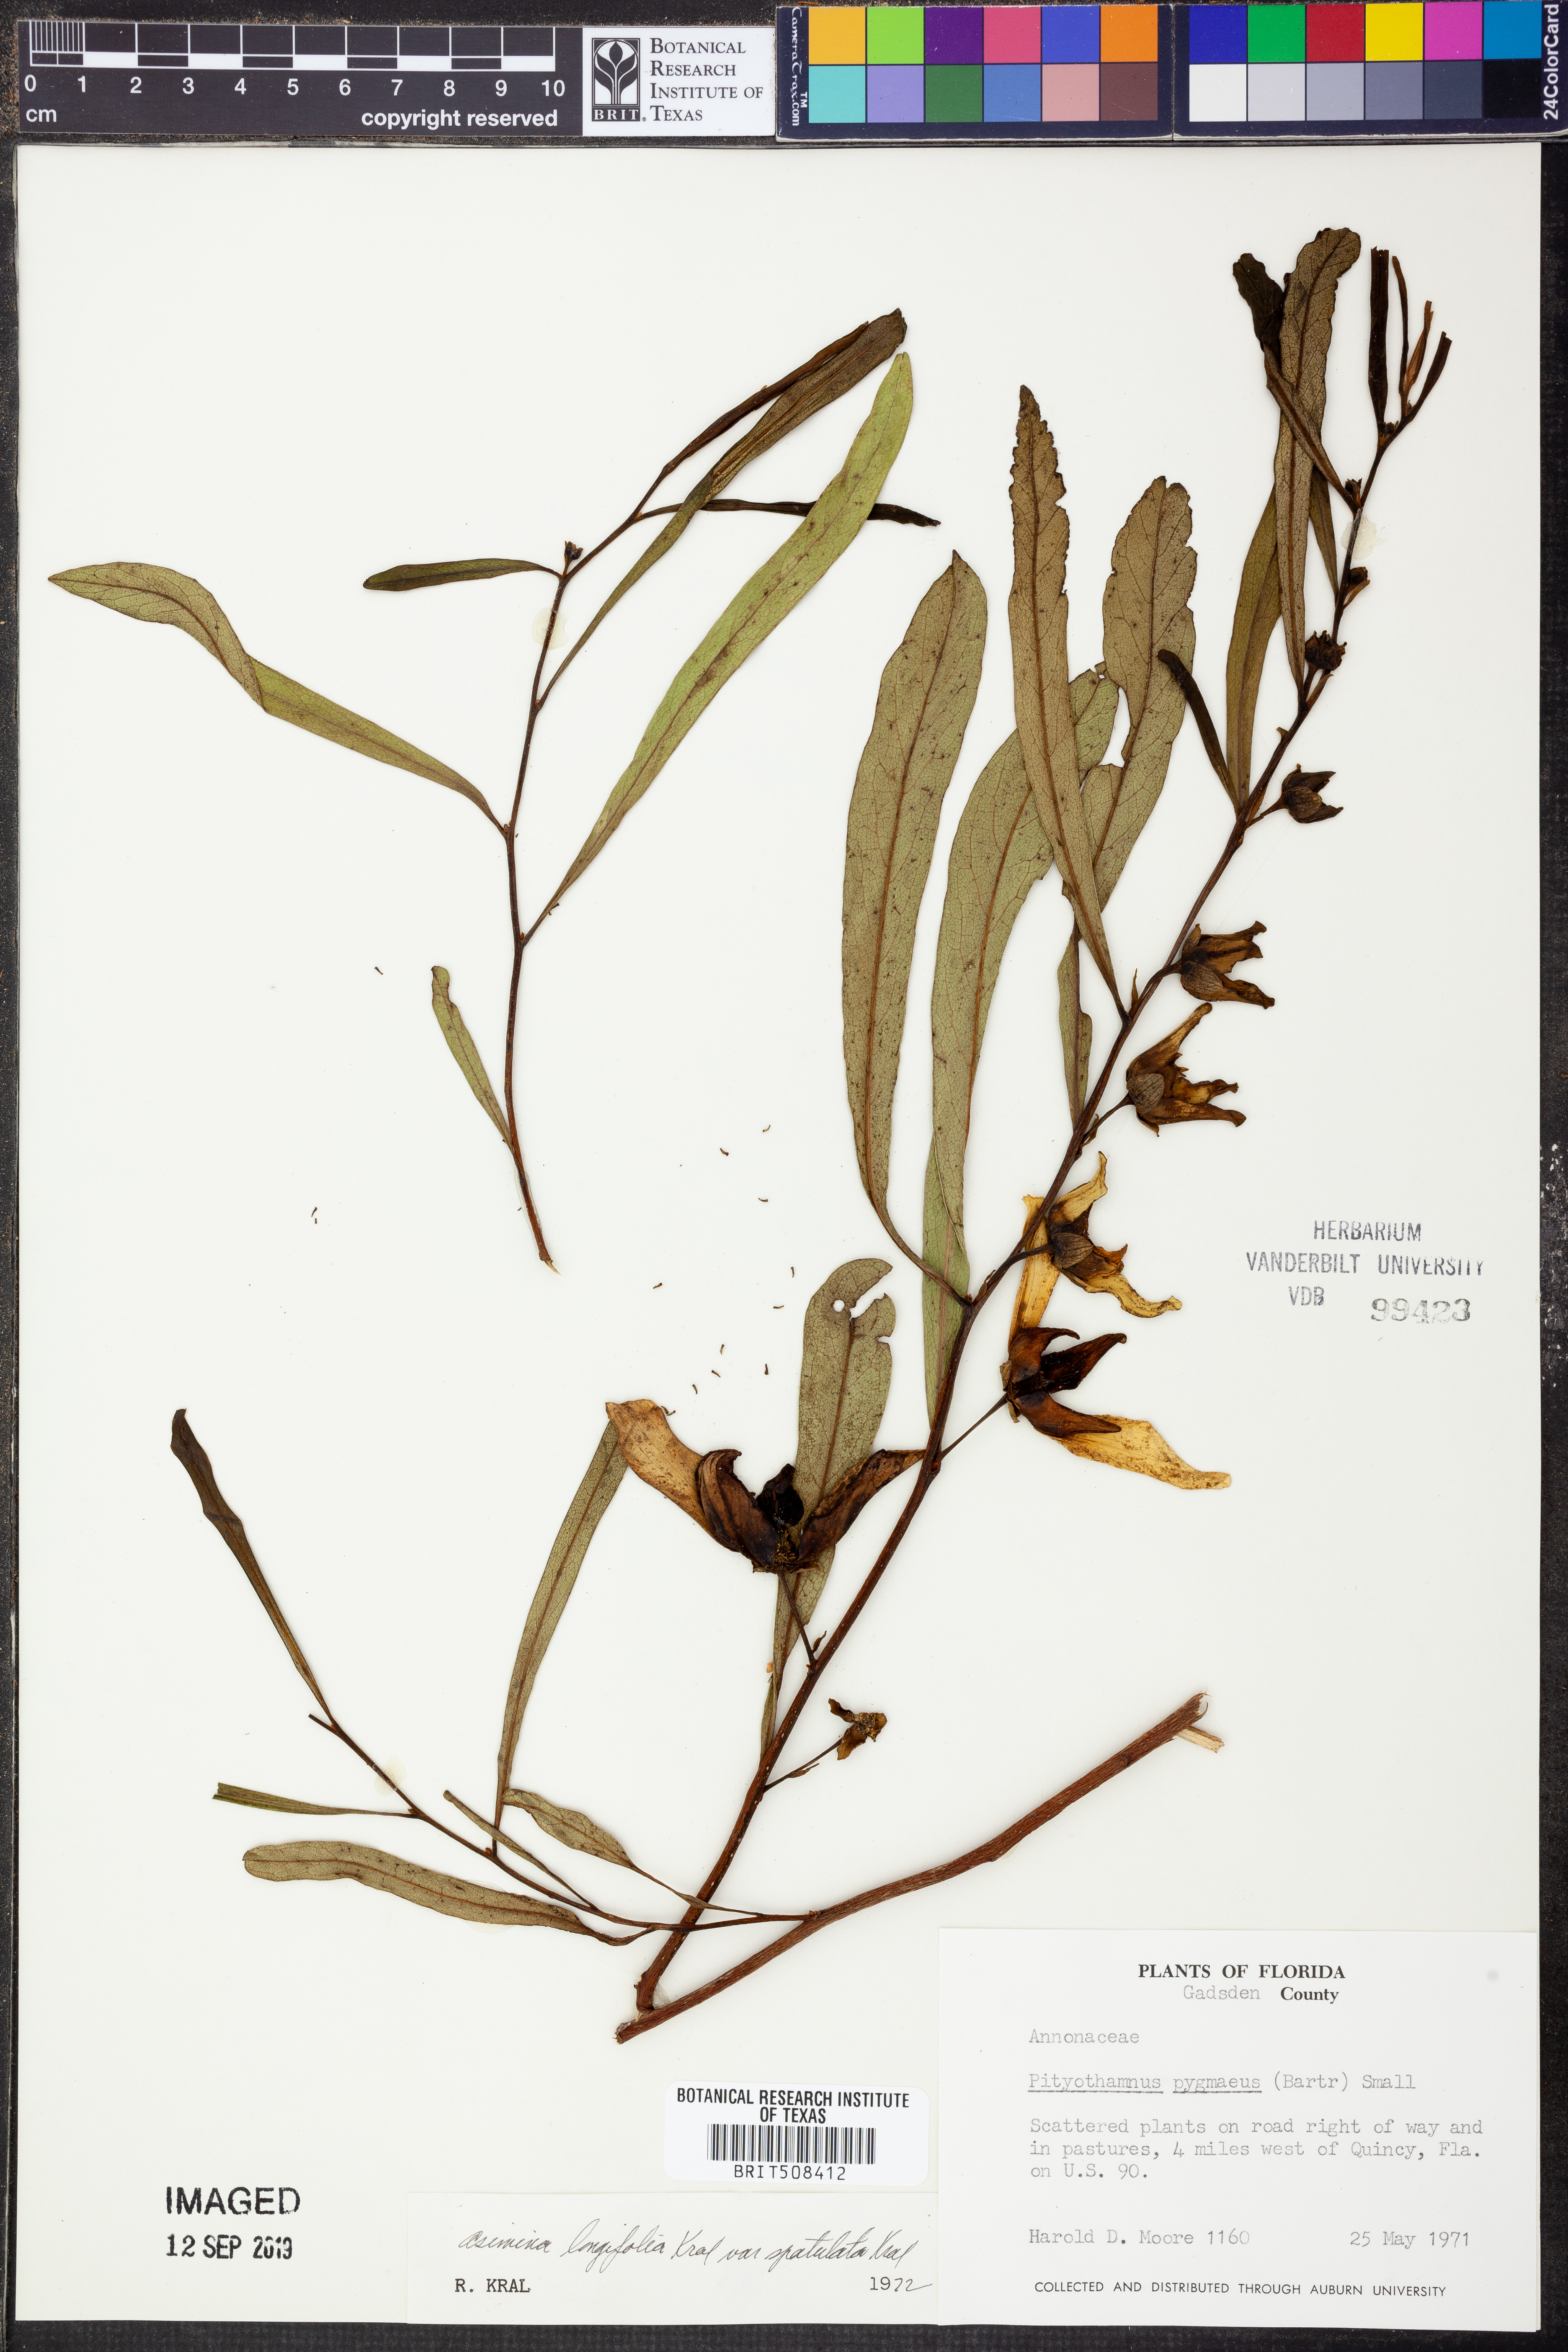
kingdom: Plantae
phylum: Tracheophyta
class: Magnoliopsida
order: Magnoliales
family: Annonaceae
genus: Asimina
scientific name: Asimina longifolia
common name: Polecatbush
